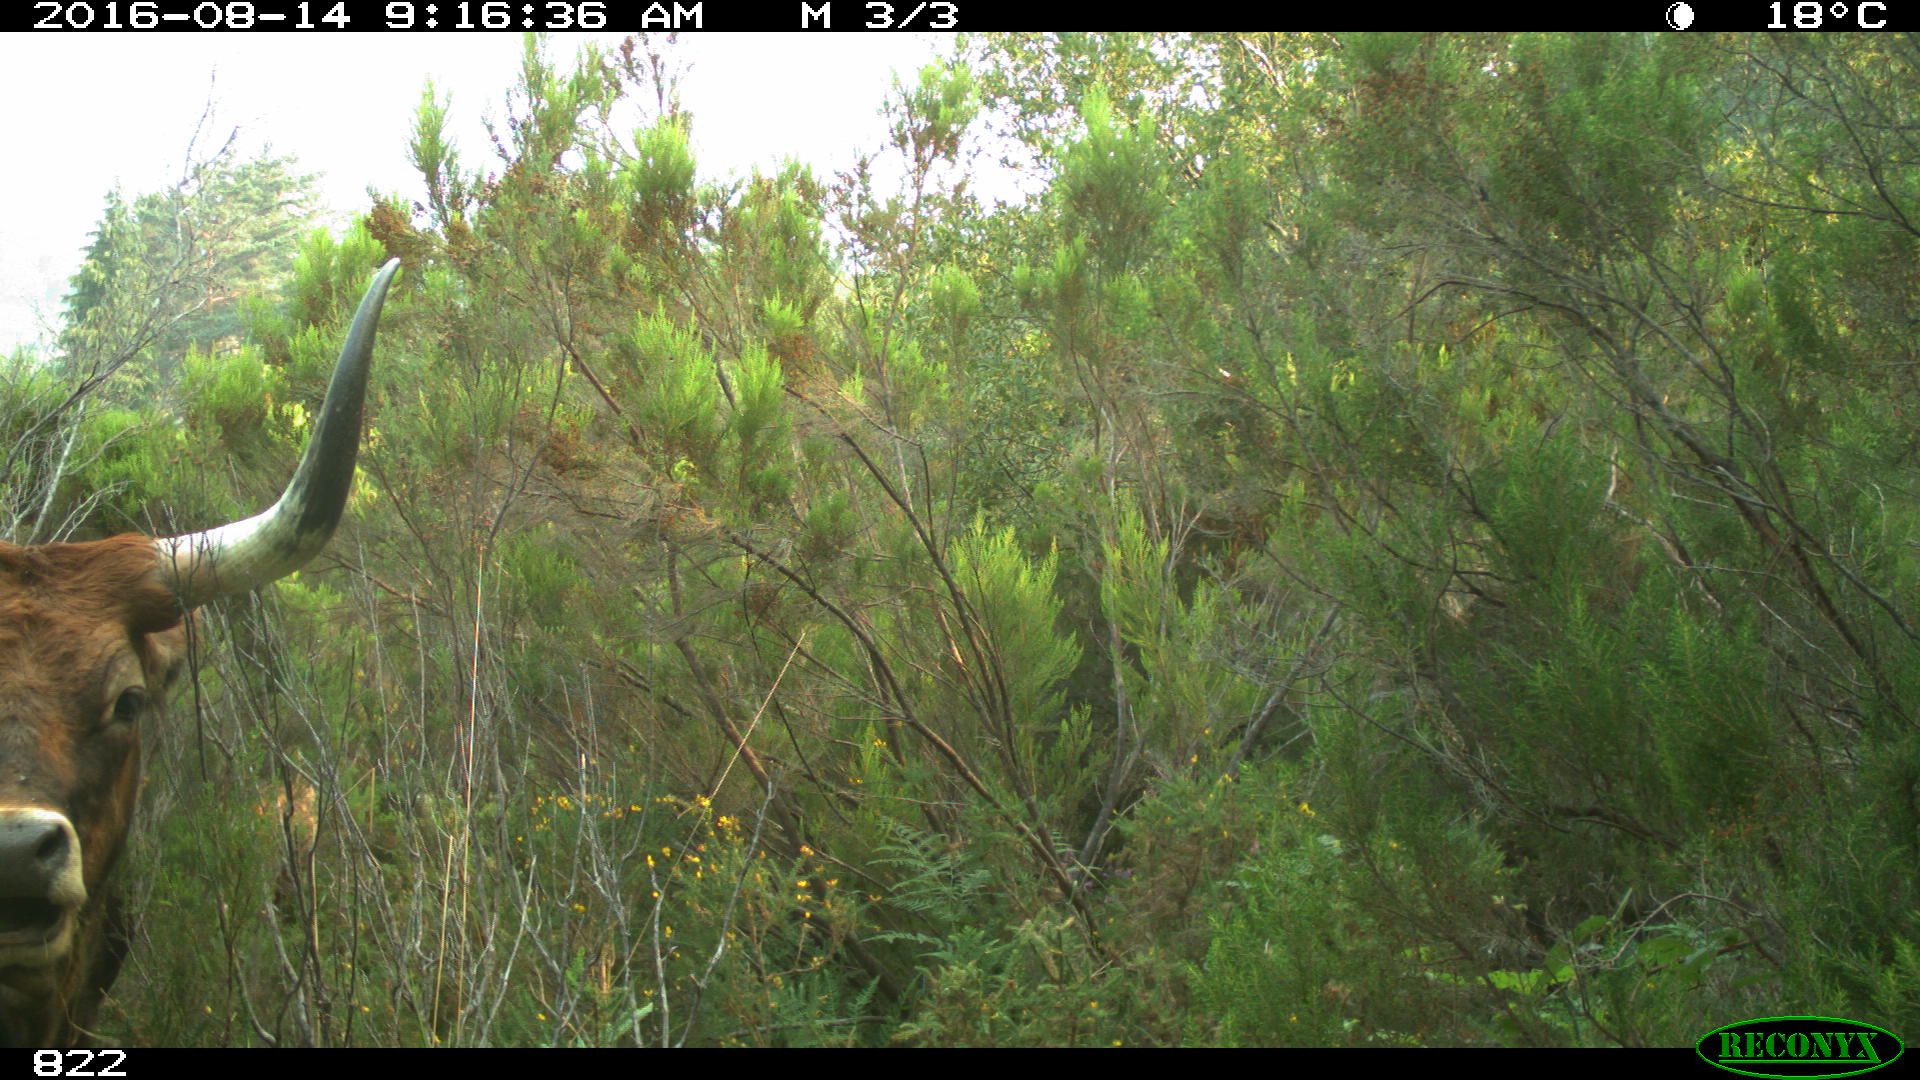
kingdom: Animalia
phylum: Chordata
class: Mammalia
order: Artiodactyla
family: Bovidae
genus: Bos
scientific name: Bos taurus
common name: Domesticated cattle
